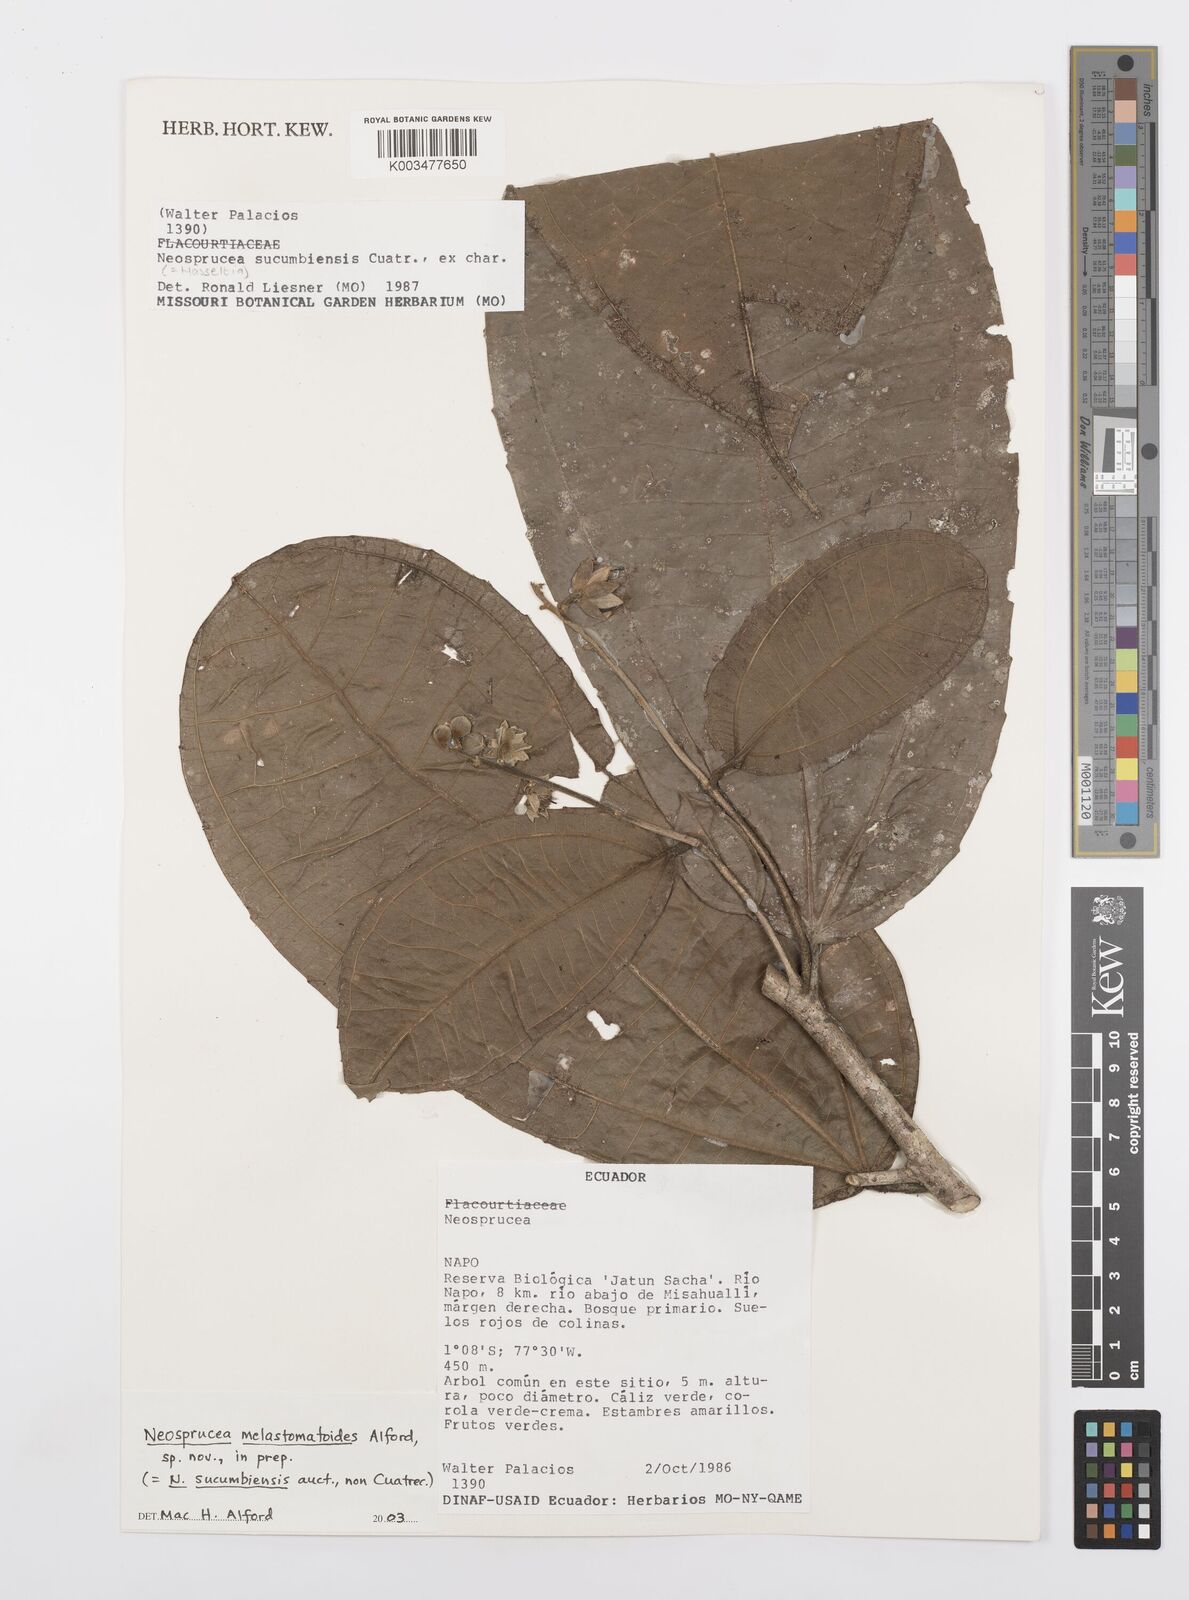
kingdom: Plantae
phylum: Tracheophyta
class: Magnoliopsida
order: Malpighiales
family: Salicaceae
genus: Neosprucea
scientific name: Neosprucea melastomatoides
